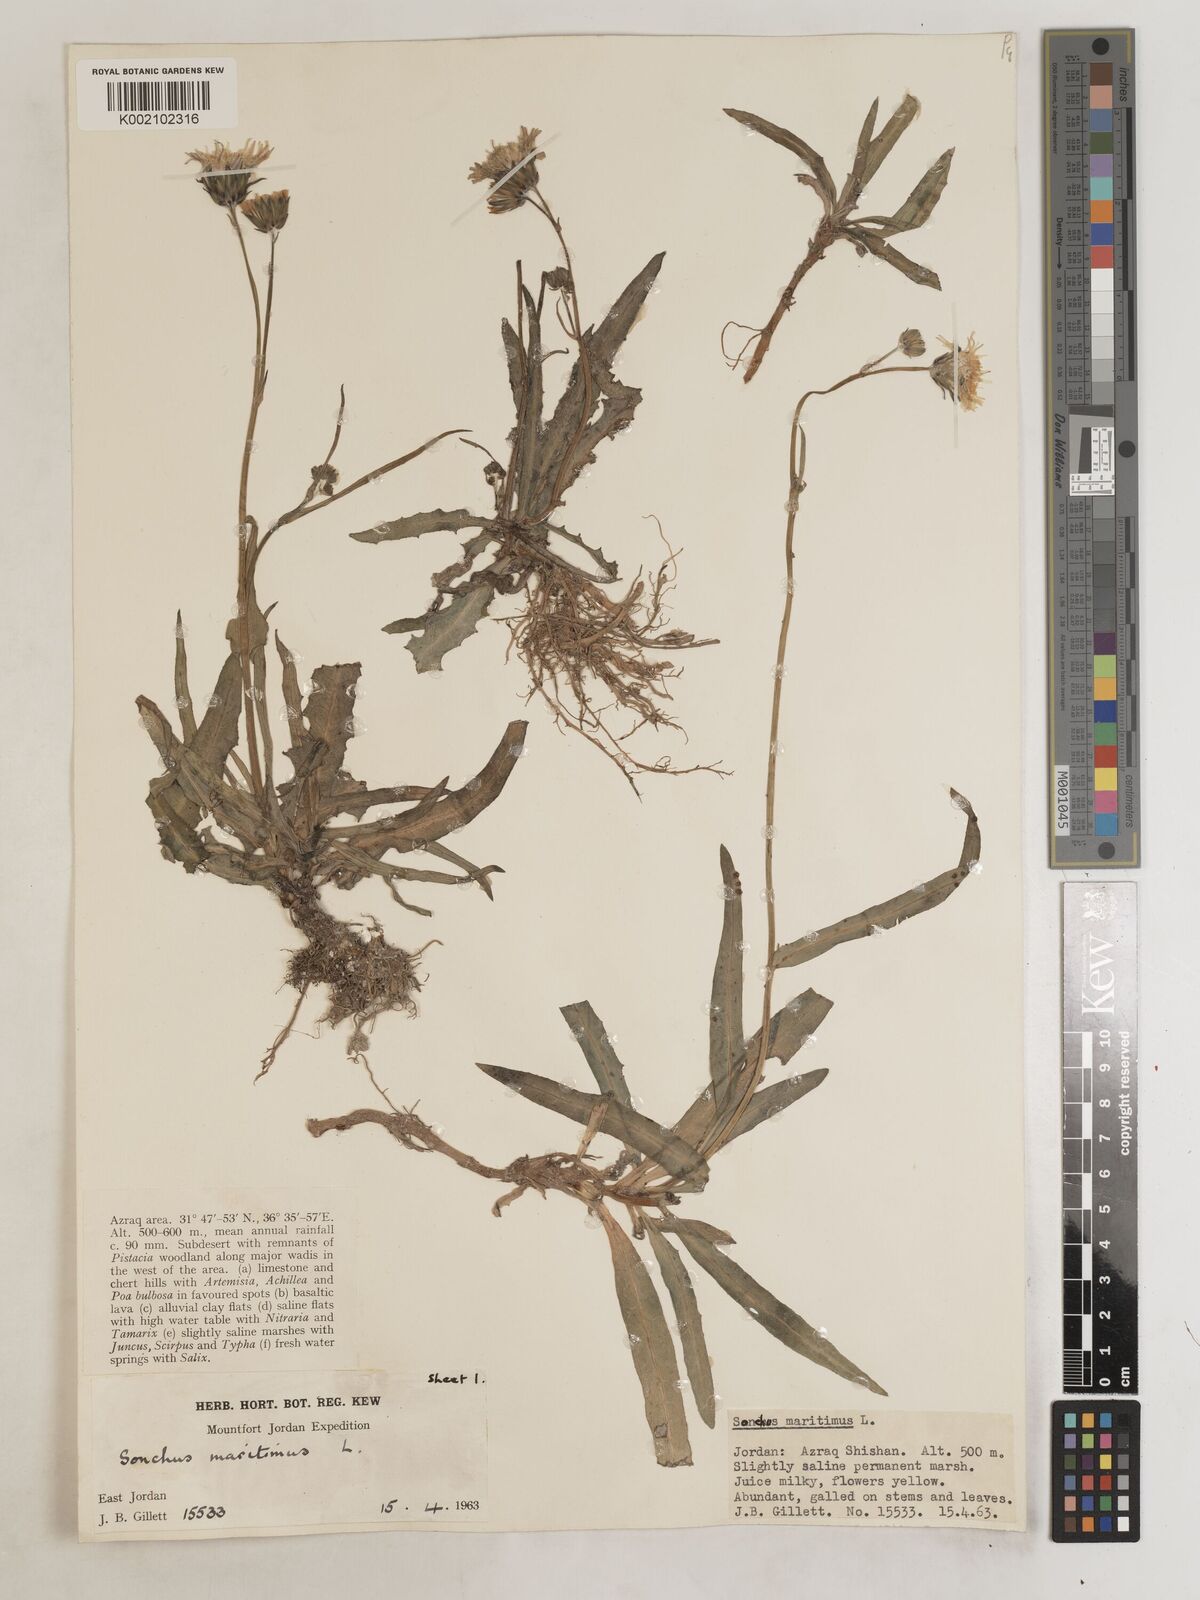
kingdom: Plantae
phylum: Tracheophyta
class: Magnoliopsida
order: Asterales
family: Asteraceae
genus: Sonchus
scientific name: Sonchus maritimus
